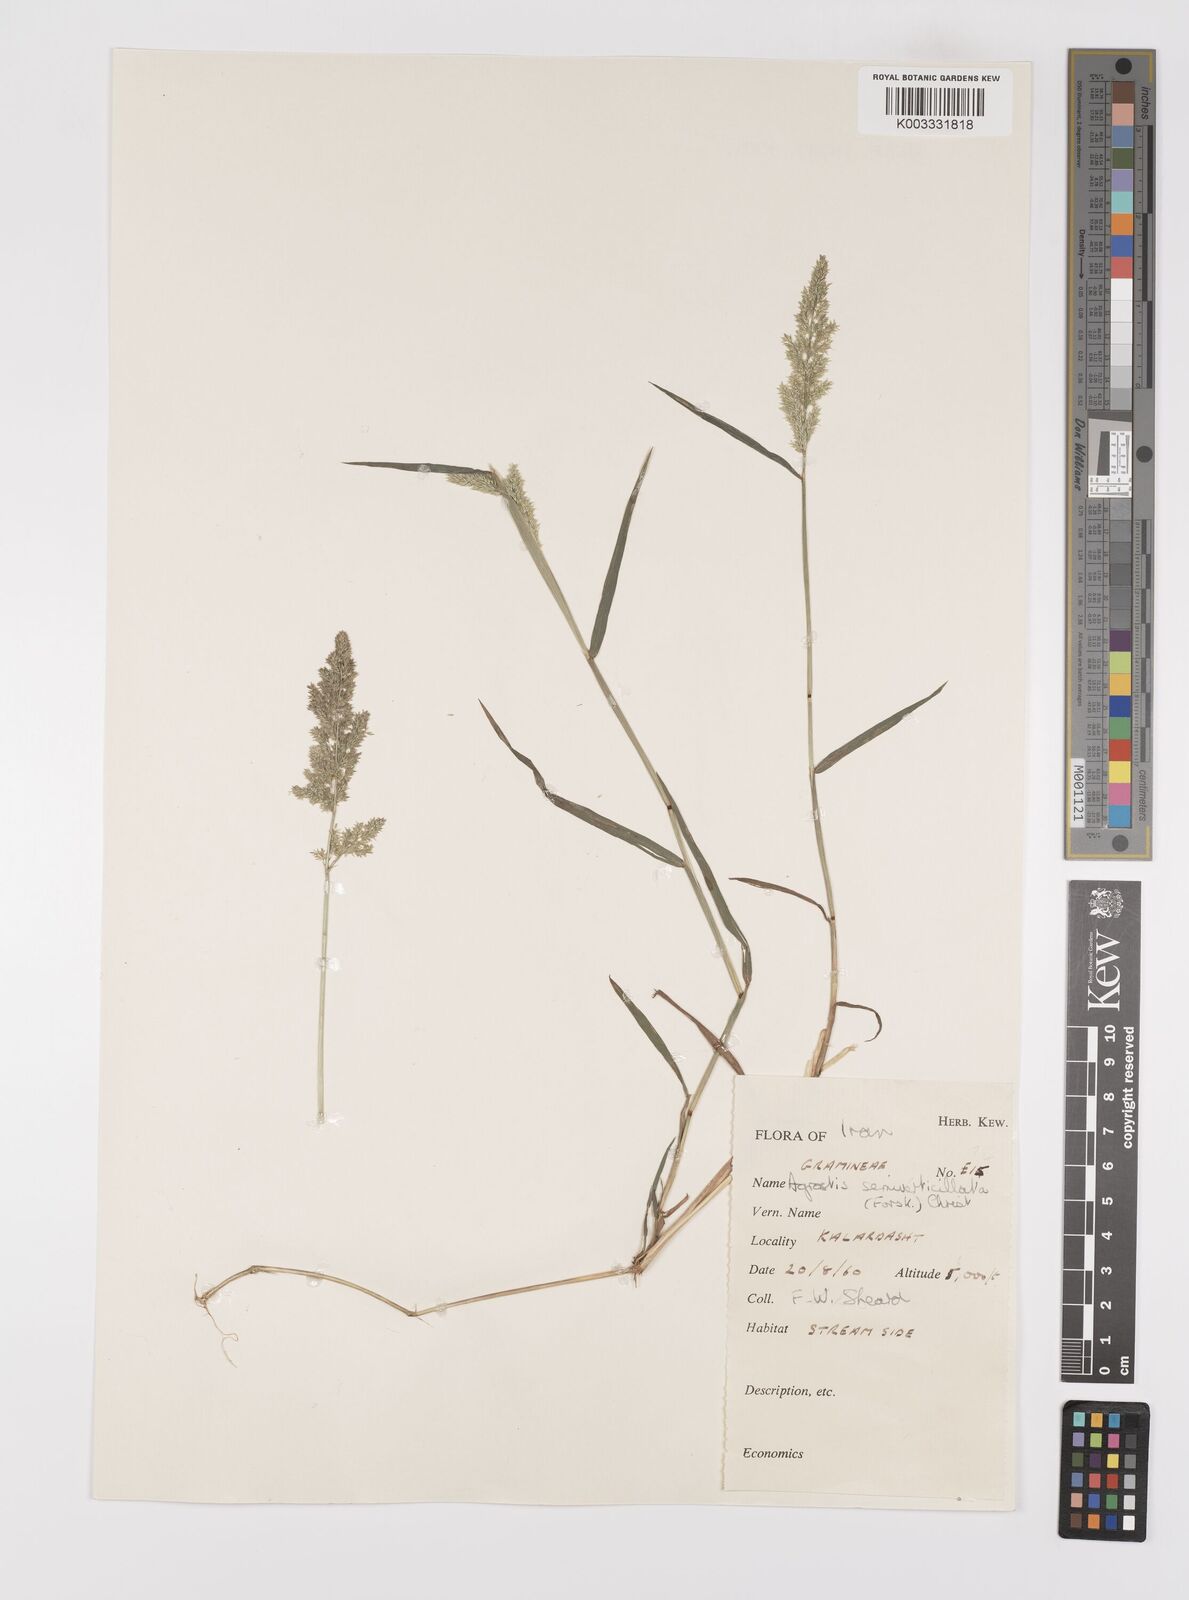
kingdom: Plantae
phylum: Tracheophyta
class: Liliopsida
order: Poales
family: Poaceae
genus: Polypogon
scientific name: Polypogon viridis
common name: Water bent
